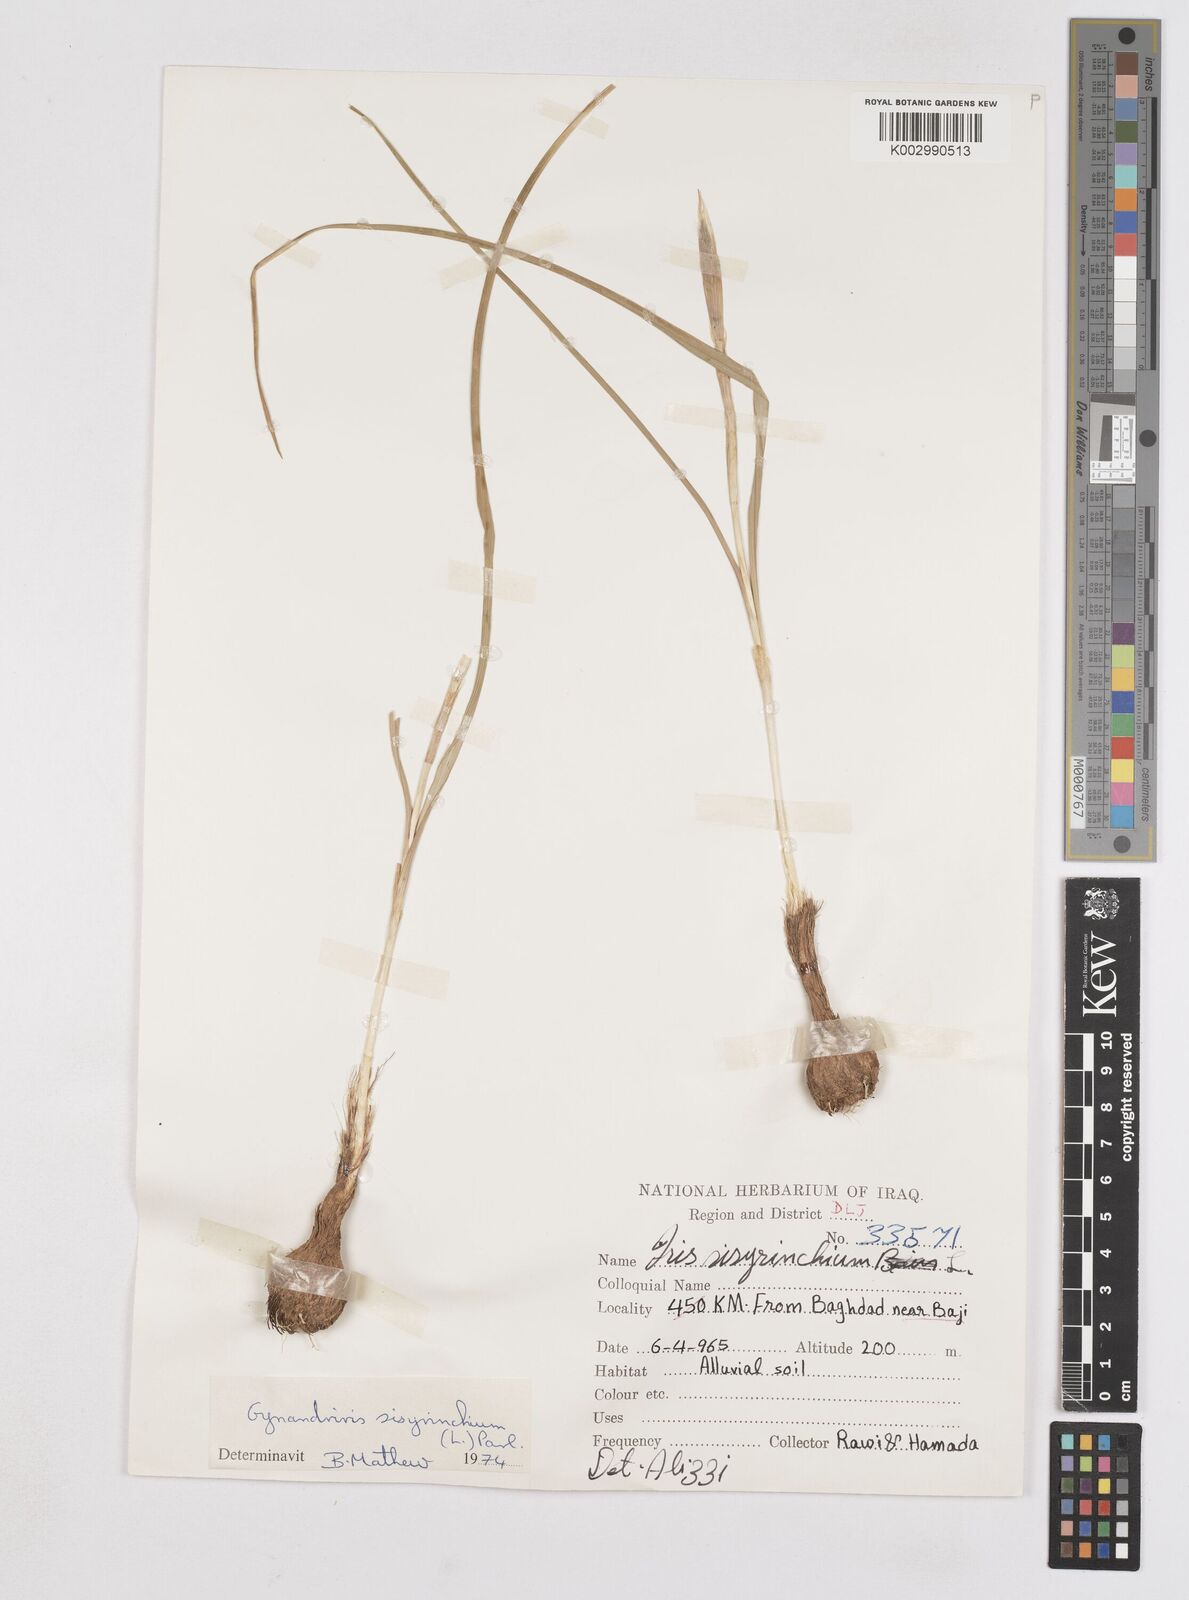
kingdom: Plantae
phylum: Tracheophyta
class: Liliopsida
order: Asparagales
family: Iridaceae
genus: Moraea
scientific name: Moraea sisyrinchium
